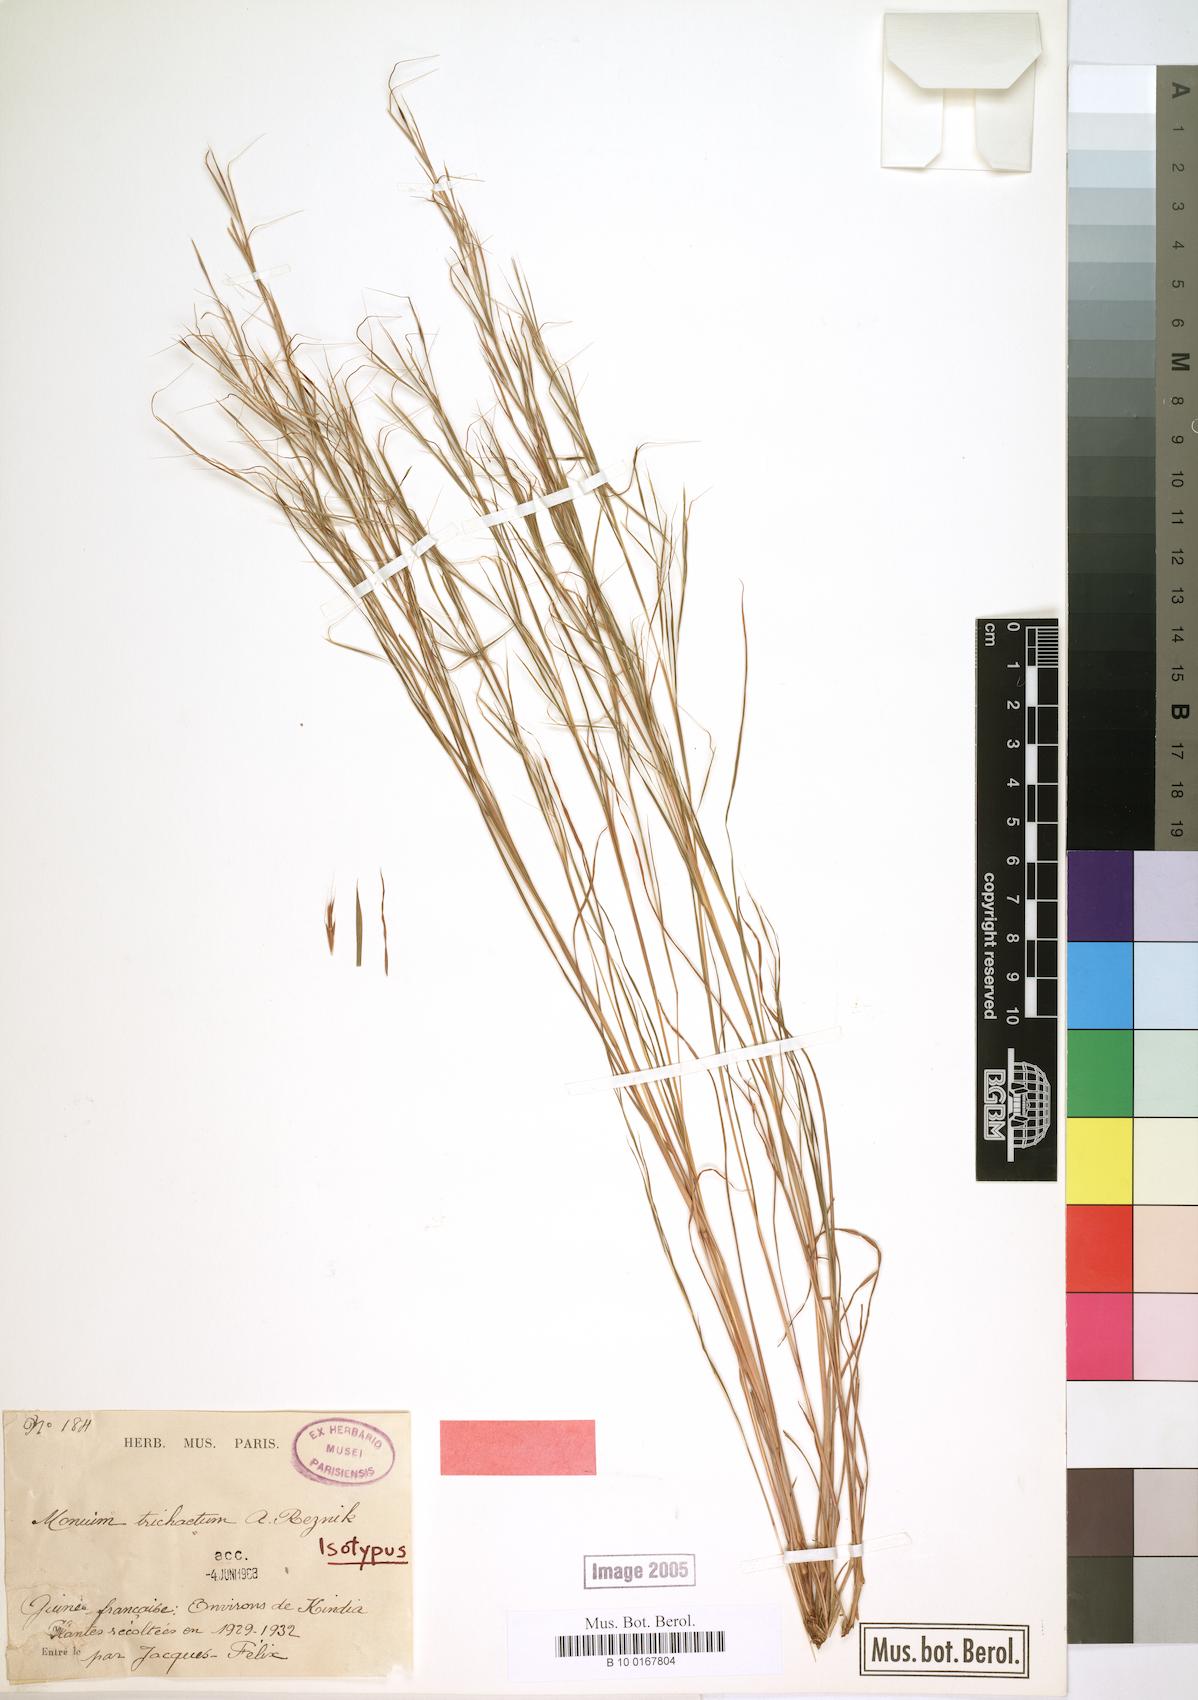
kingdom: Plantae
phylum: Tracheophyta
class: Liliopsida
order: Poales
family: Poaceae
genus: Anadelphia
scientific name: Anadelphia trichaeta
